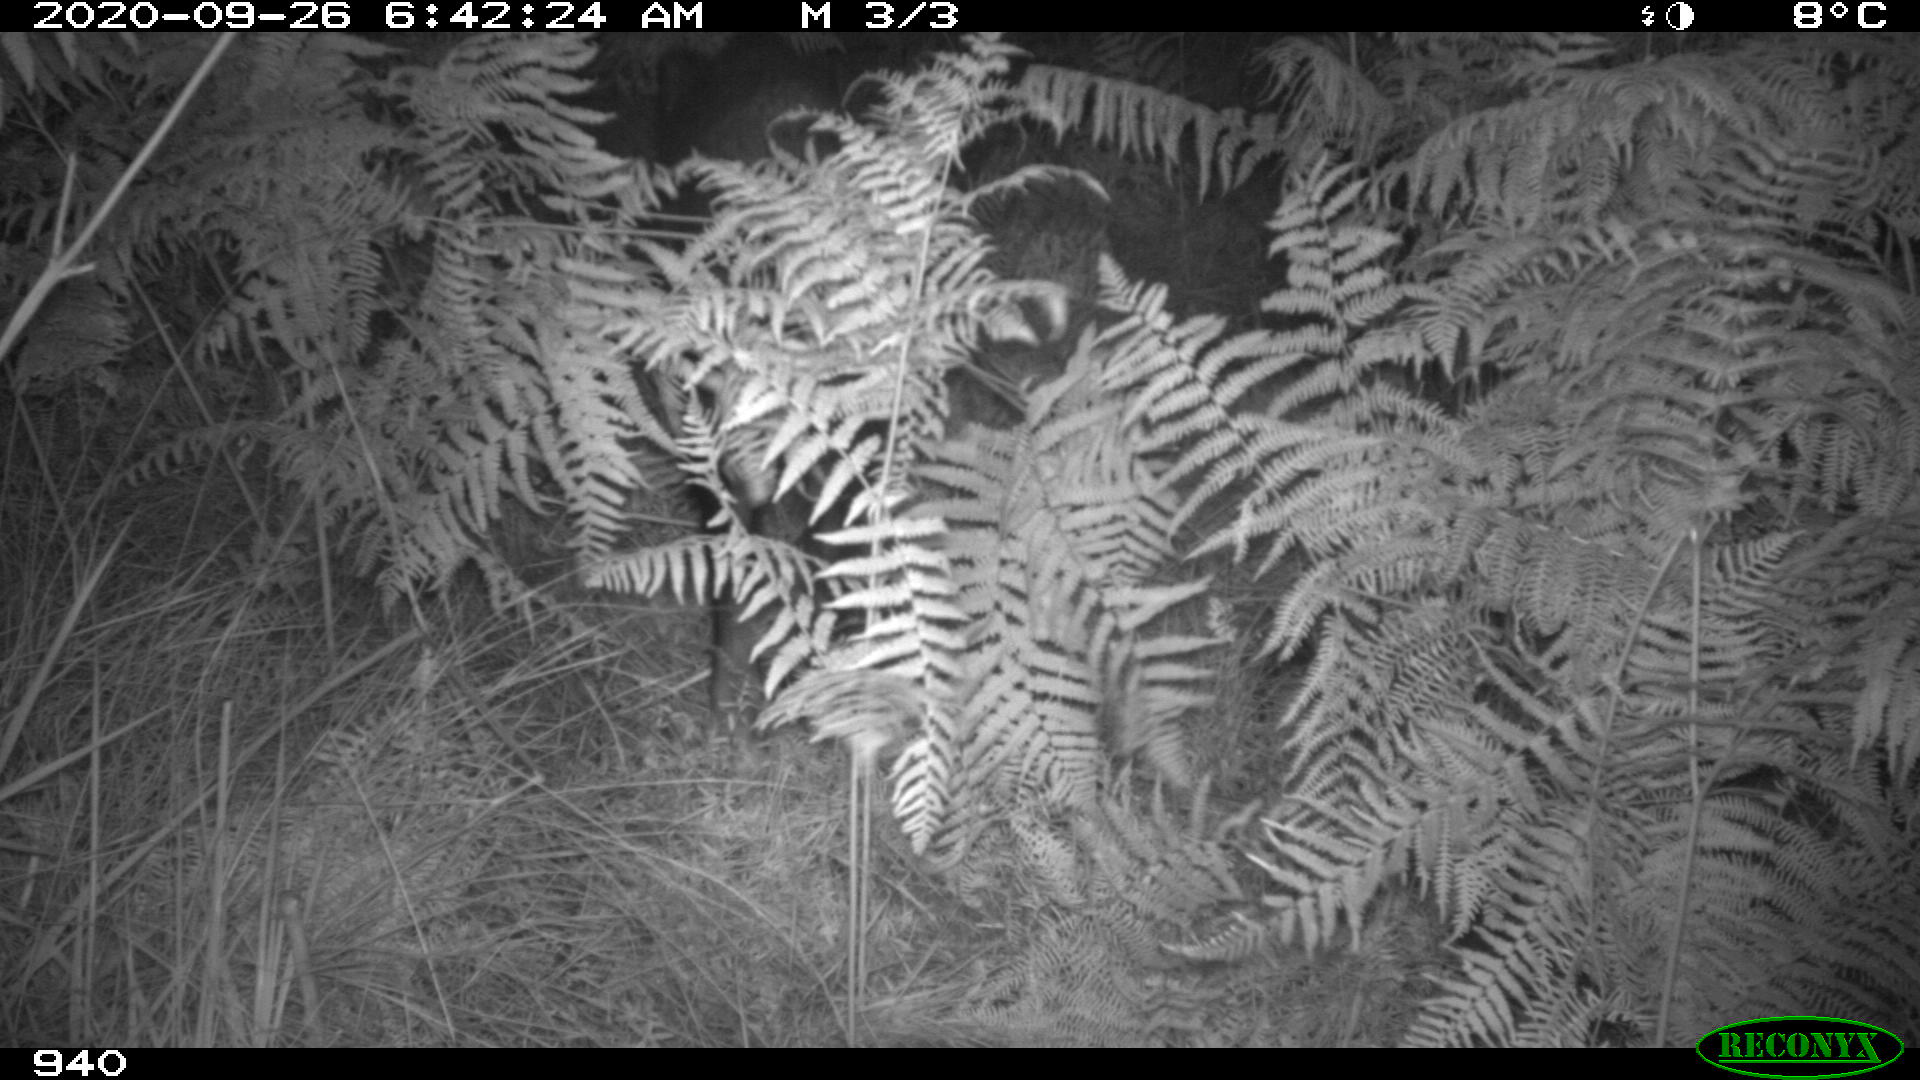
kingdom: Animalia
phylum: Chordata
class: Mammalia
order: Artiodactyla
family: Suidae
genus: Sus
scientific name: Sus scrofa
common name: Wild boar
